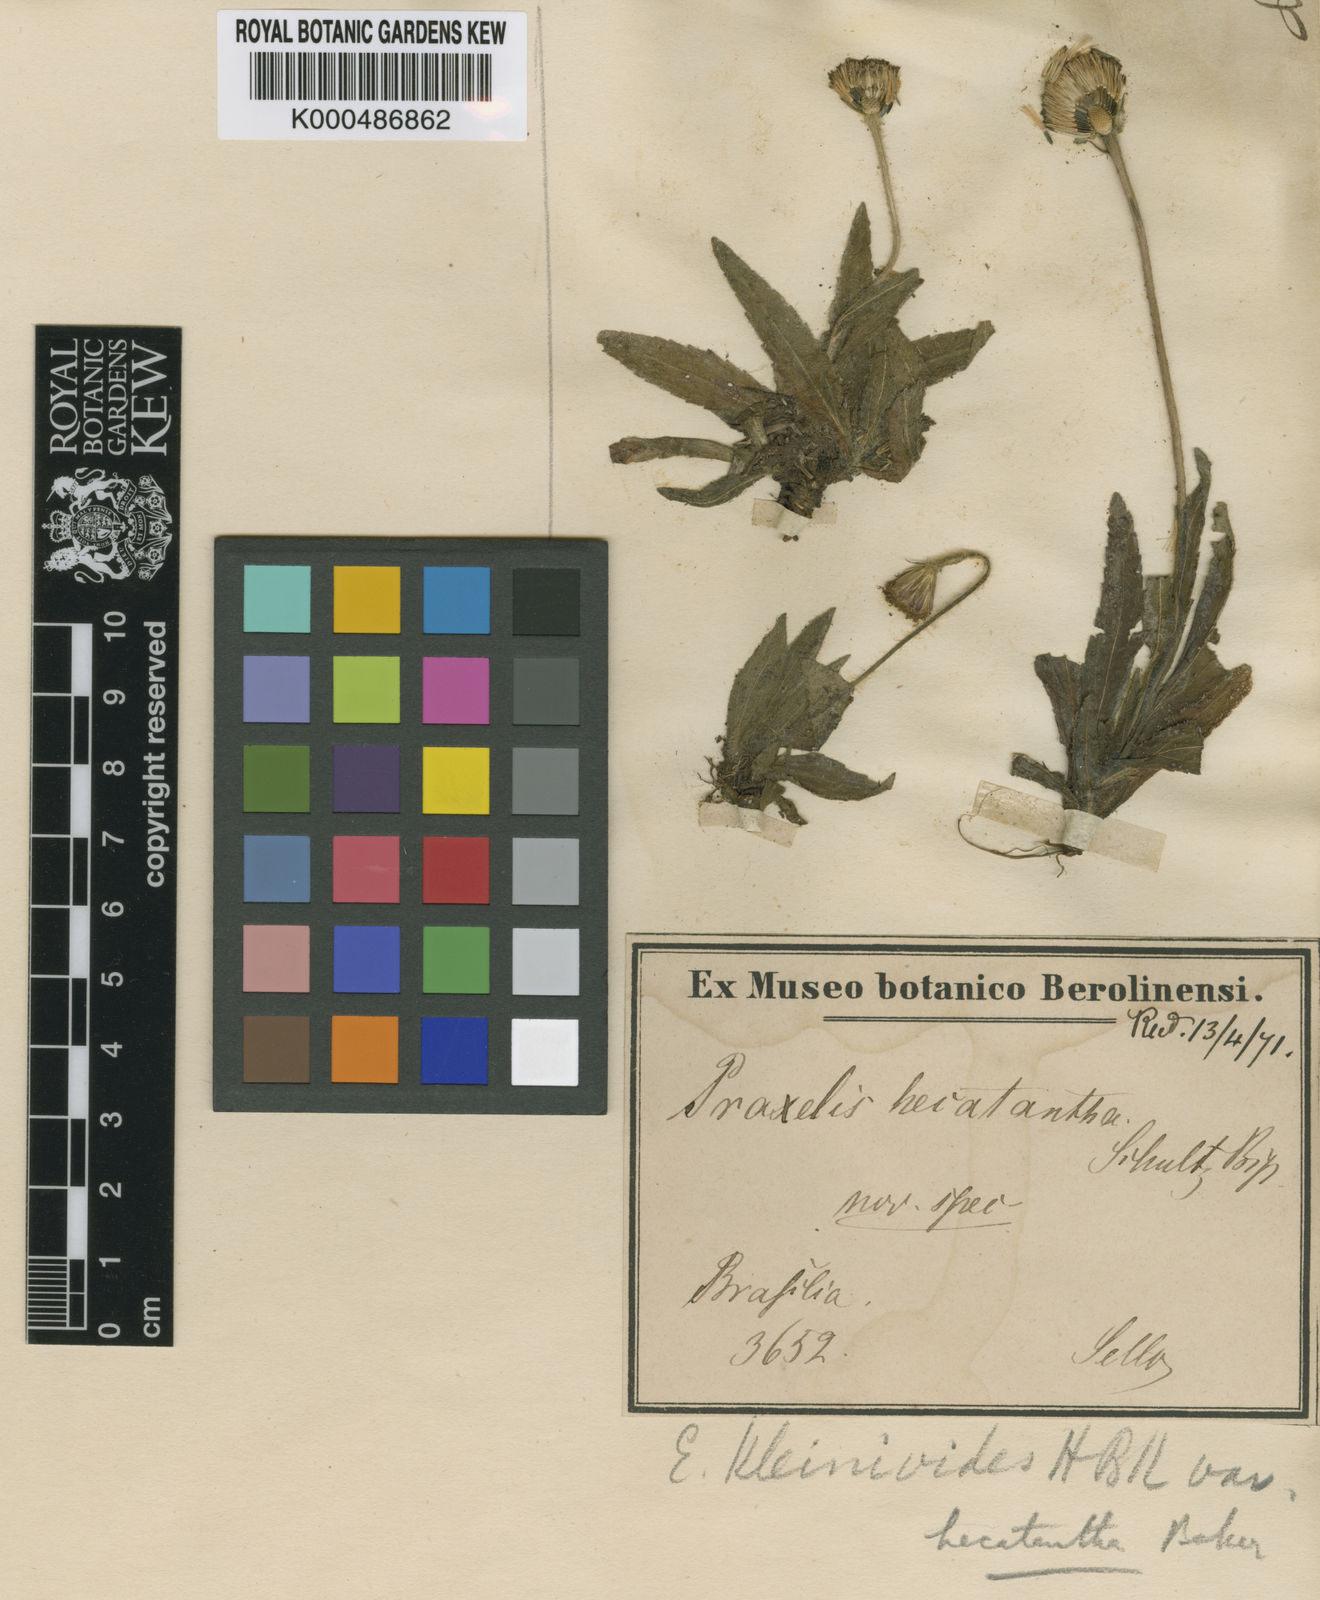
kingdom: Plantae
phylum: Tracheophyta
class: Magnoliopsida
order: Asterales
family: Asteraceae
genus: Praxelis
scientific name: Praxelis kleinioides
